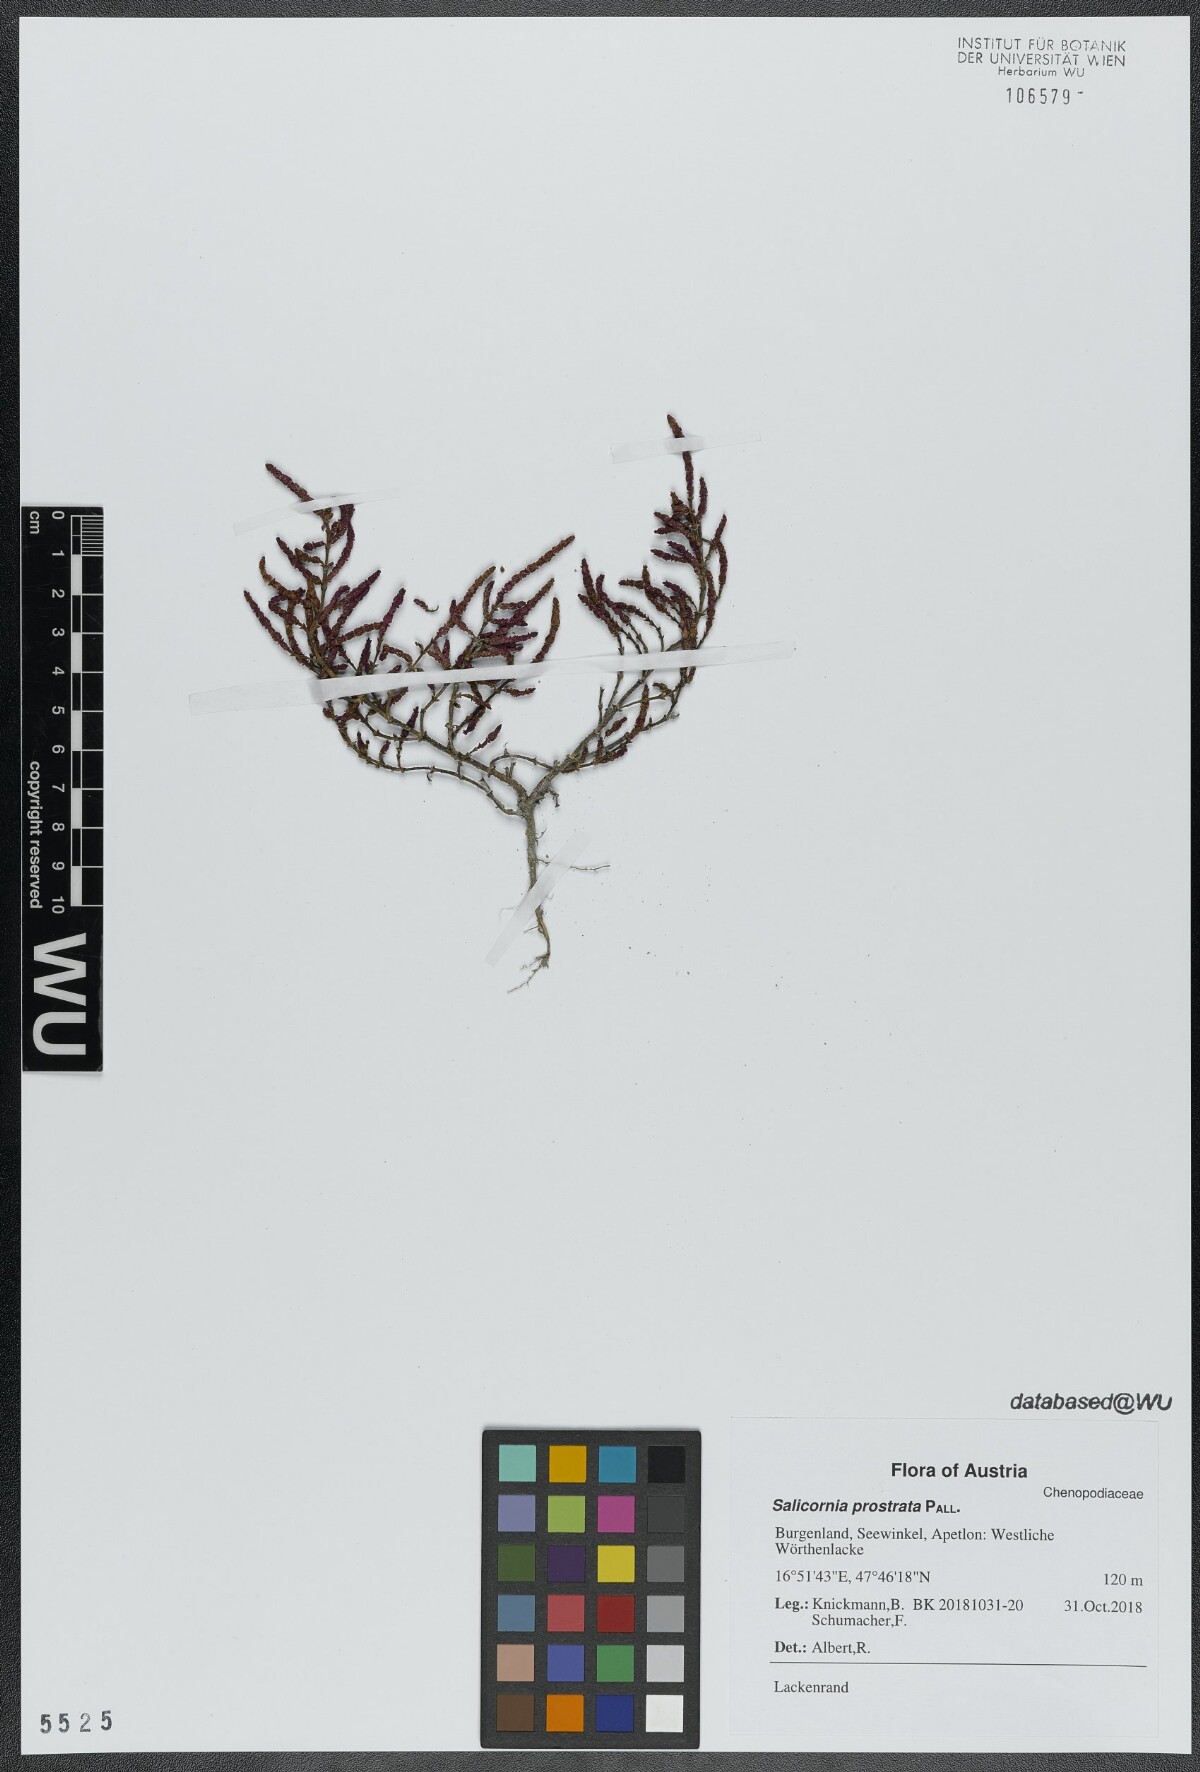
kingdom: Plantae
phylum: Tracheophyta
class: Magnoliopsida
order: Caryophyllales
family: Amaranthaceae
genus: Salicornia
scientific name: Salicornia perennans
